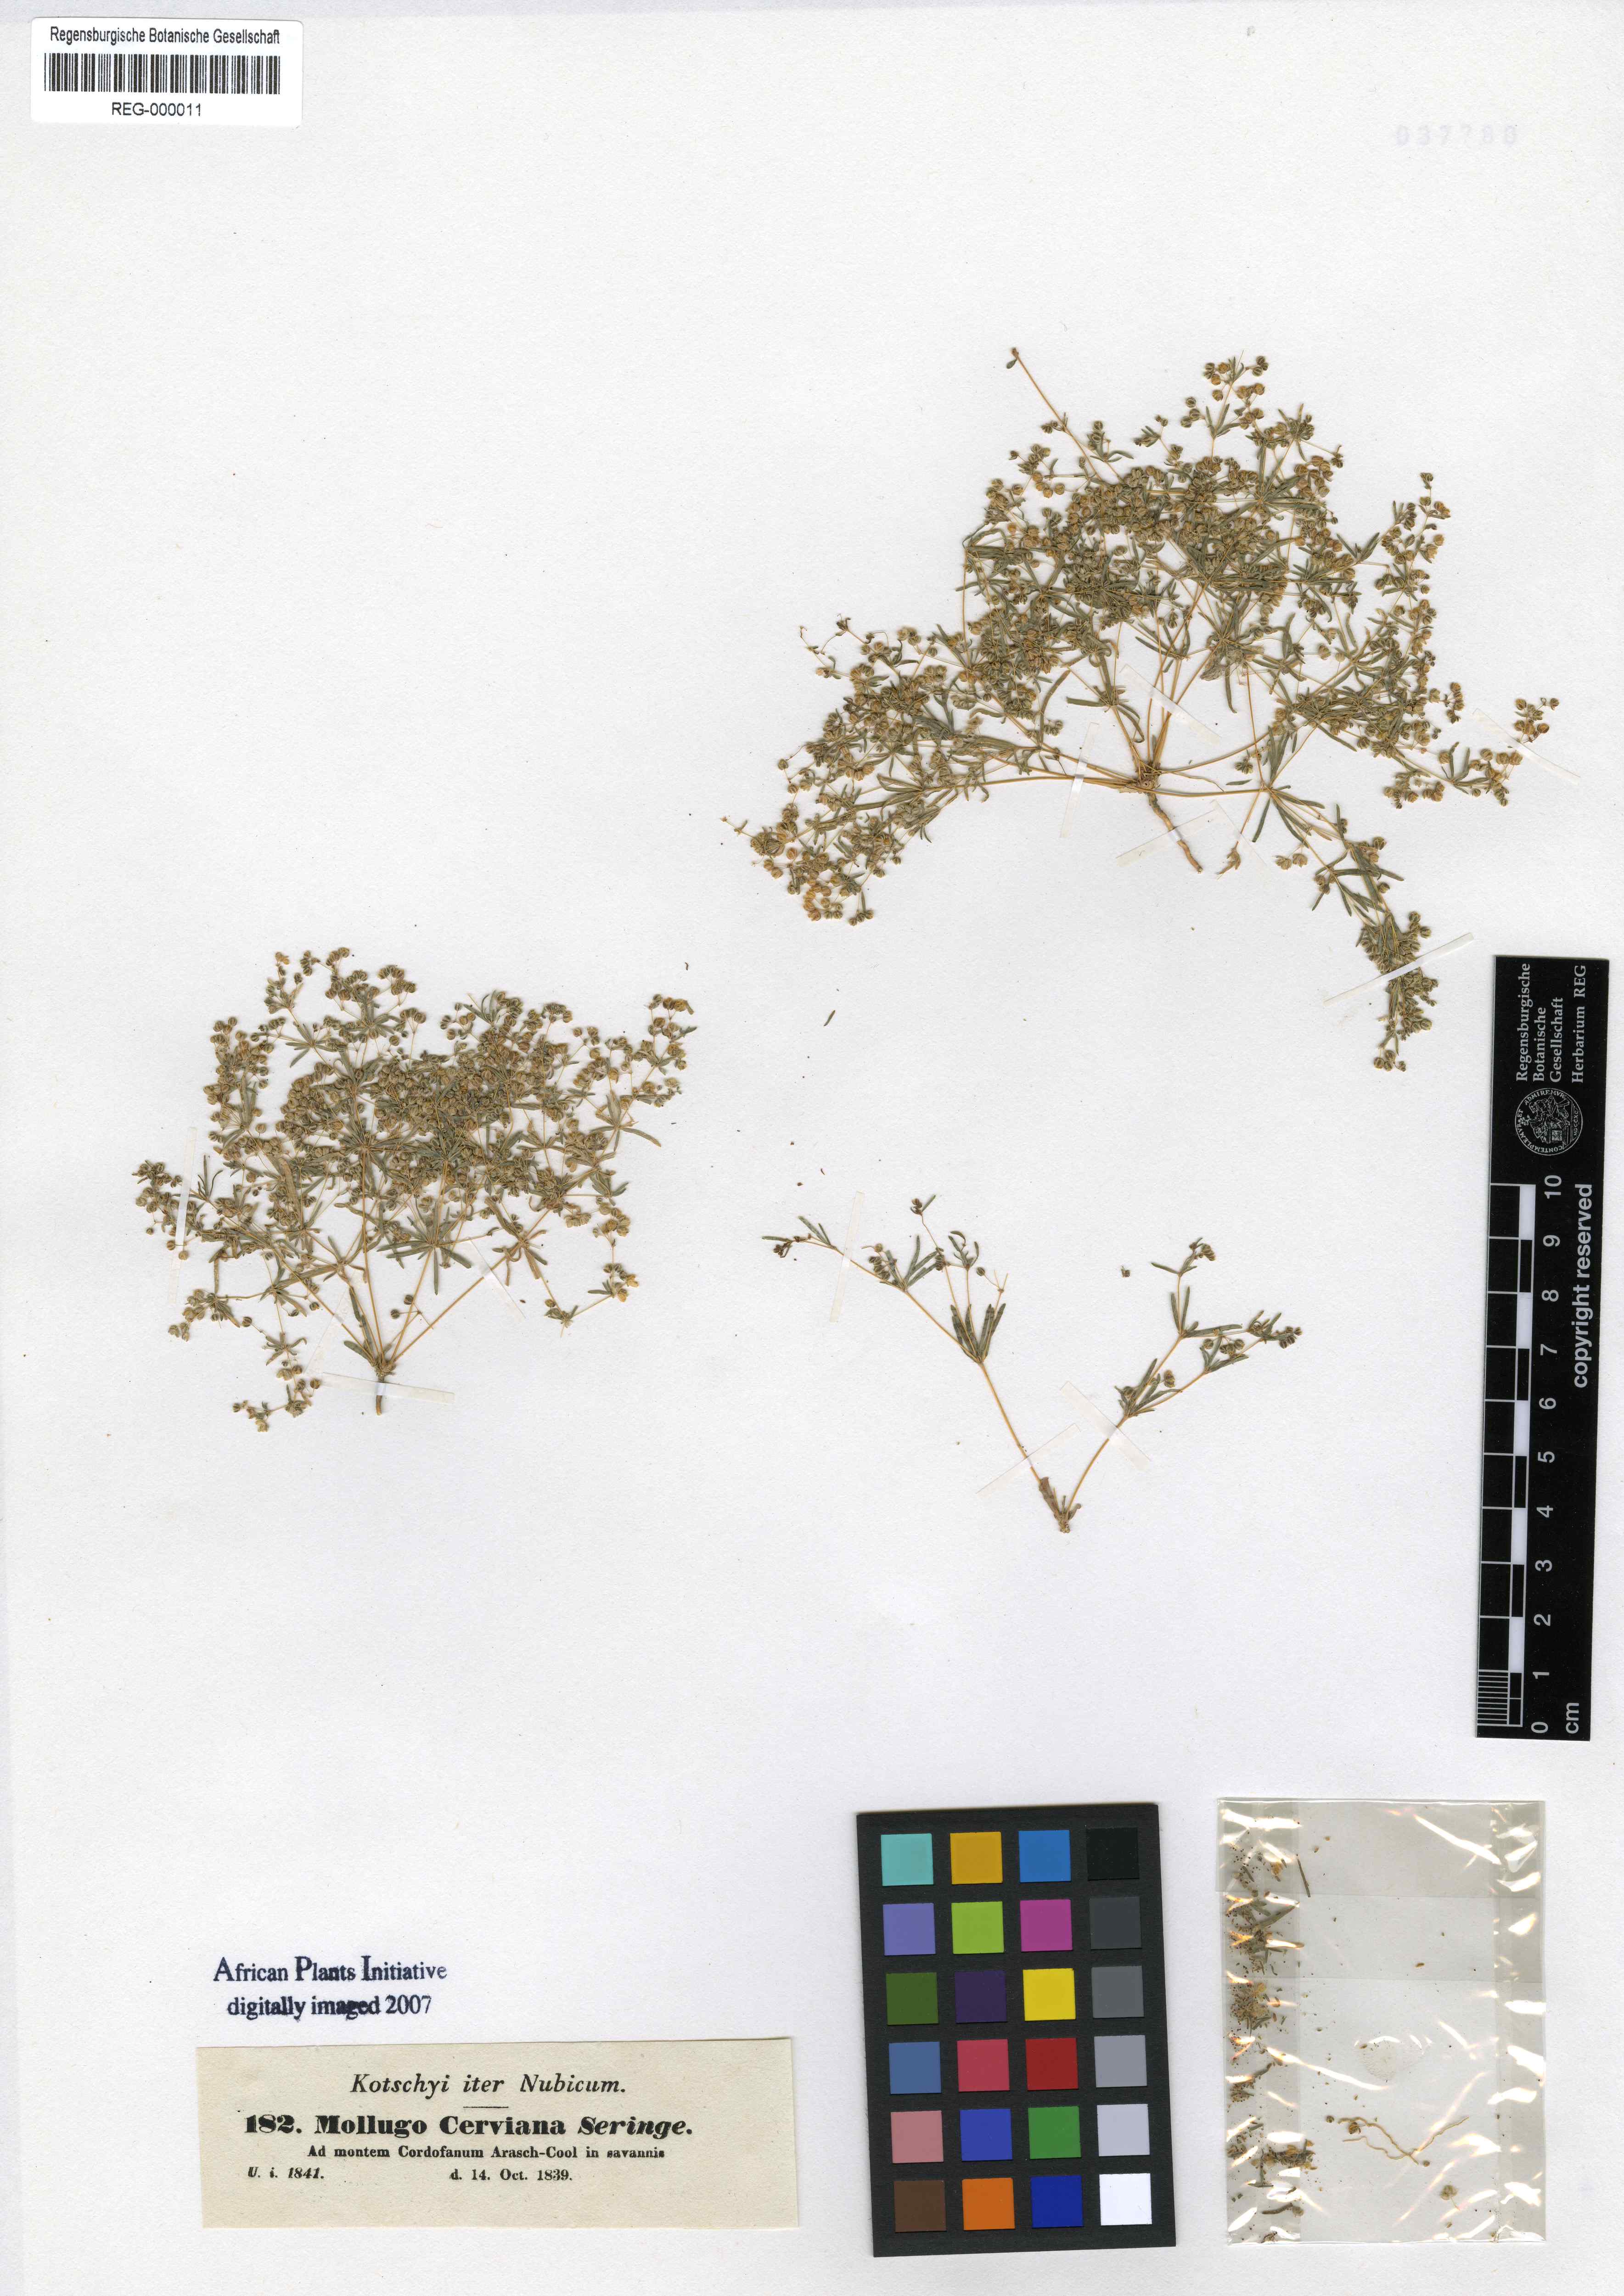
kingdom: Plantae
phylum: Tracheophyta
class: Magnoliopsida
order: Caryophyllales
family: Molluginaceae
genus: Hypertelis
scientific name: Hypertelis cerviana
